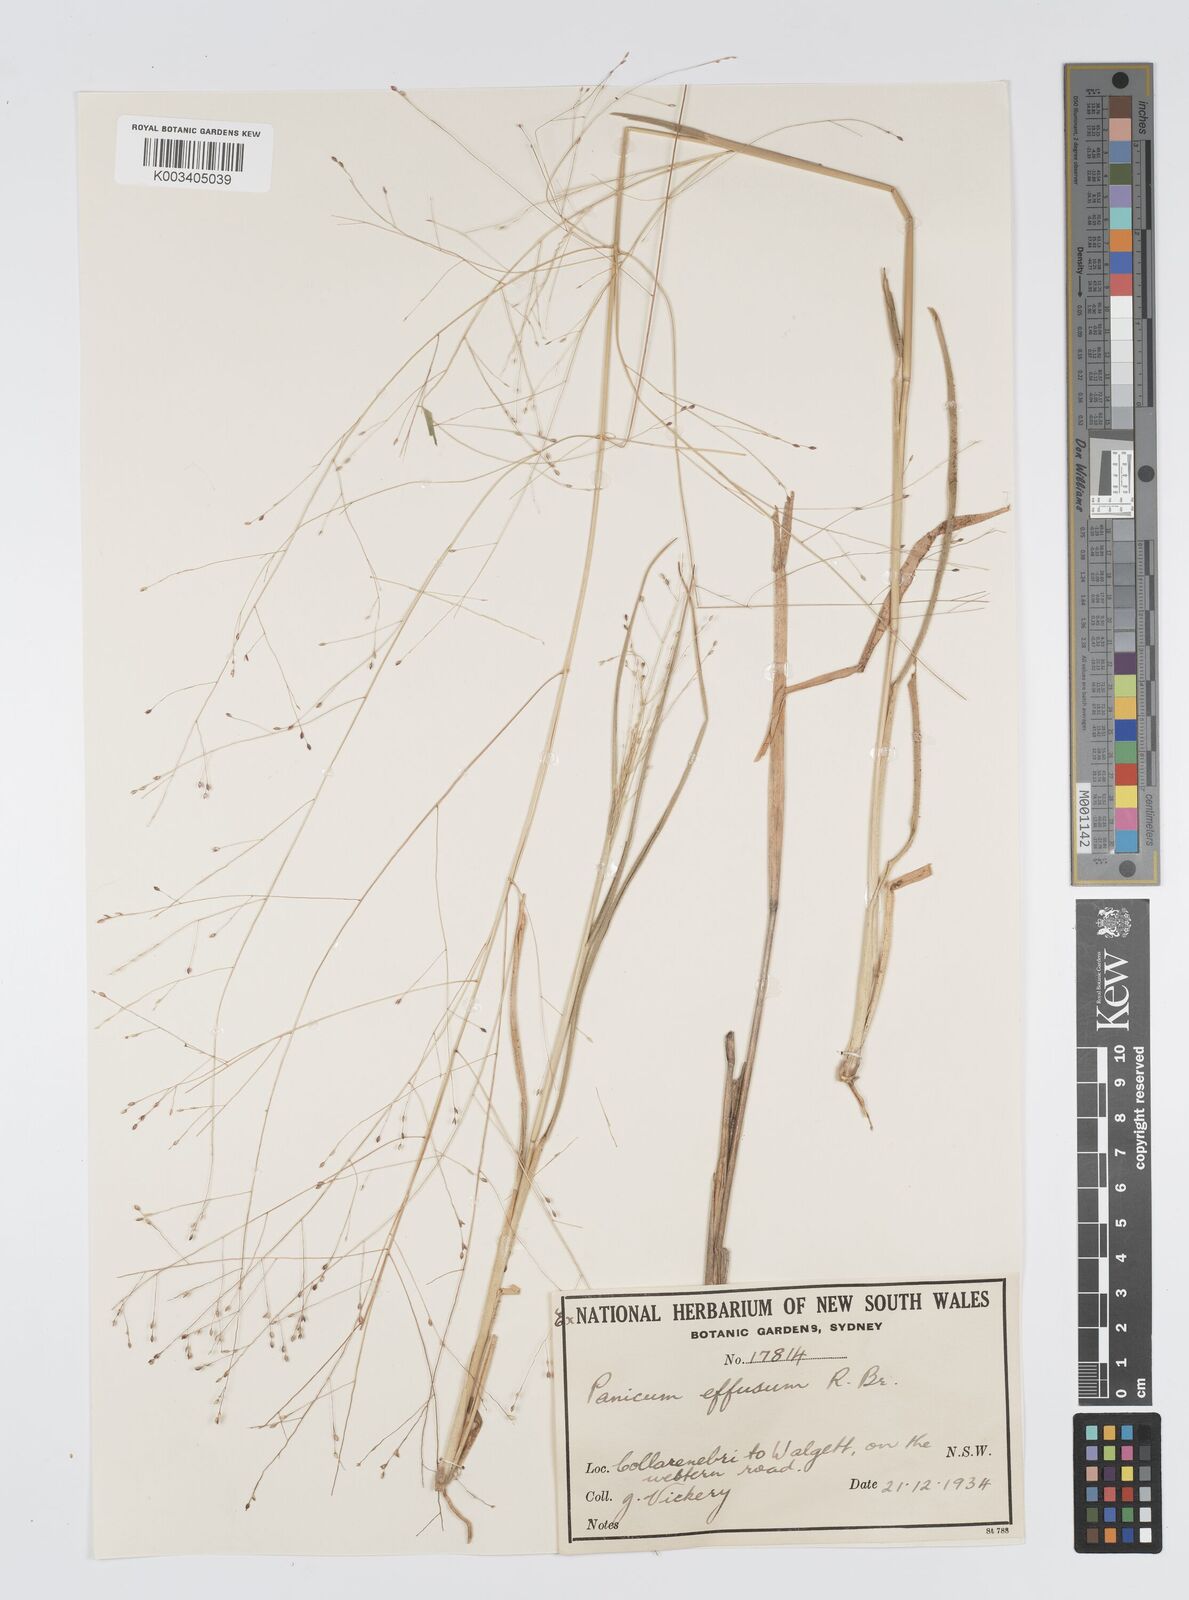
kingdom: Plantae
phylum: Tracheophyta
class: Liliopsida
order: Poales
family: Poaceae
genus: Panicum
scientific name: Panicum effusum
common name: Hairy panic grass
